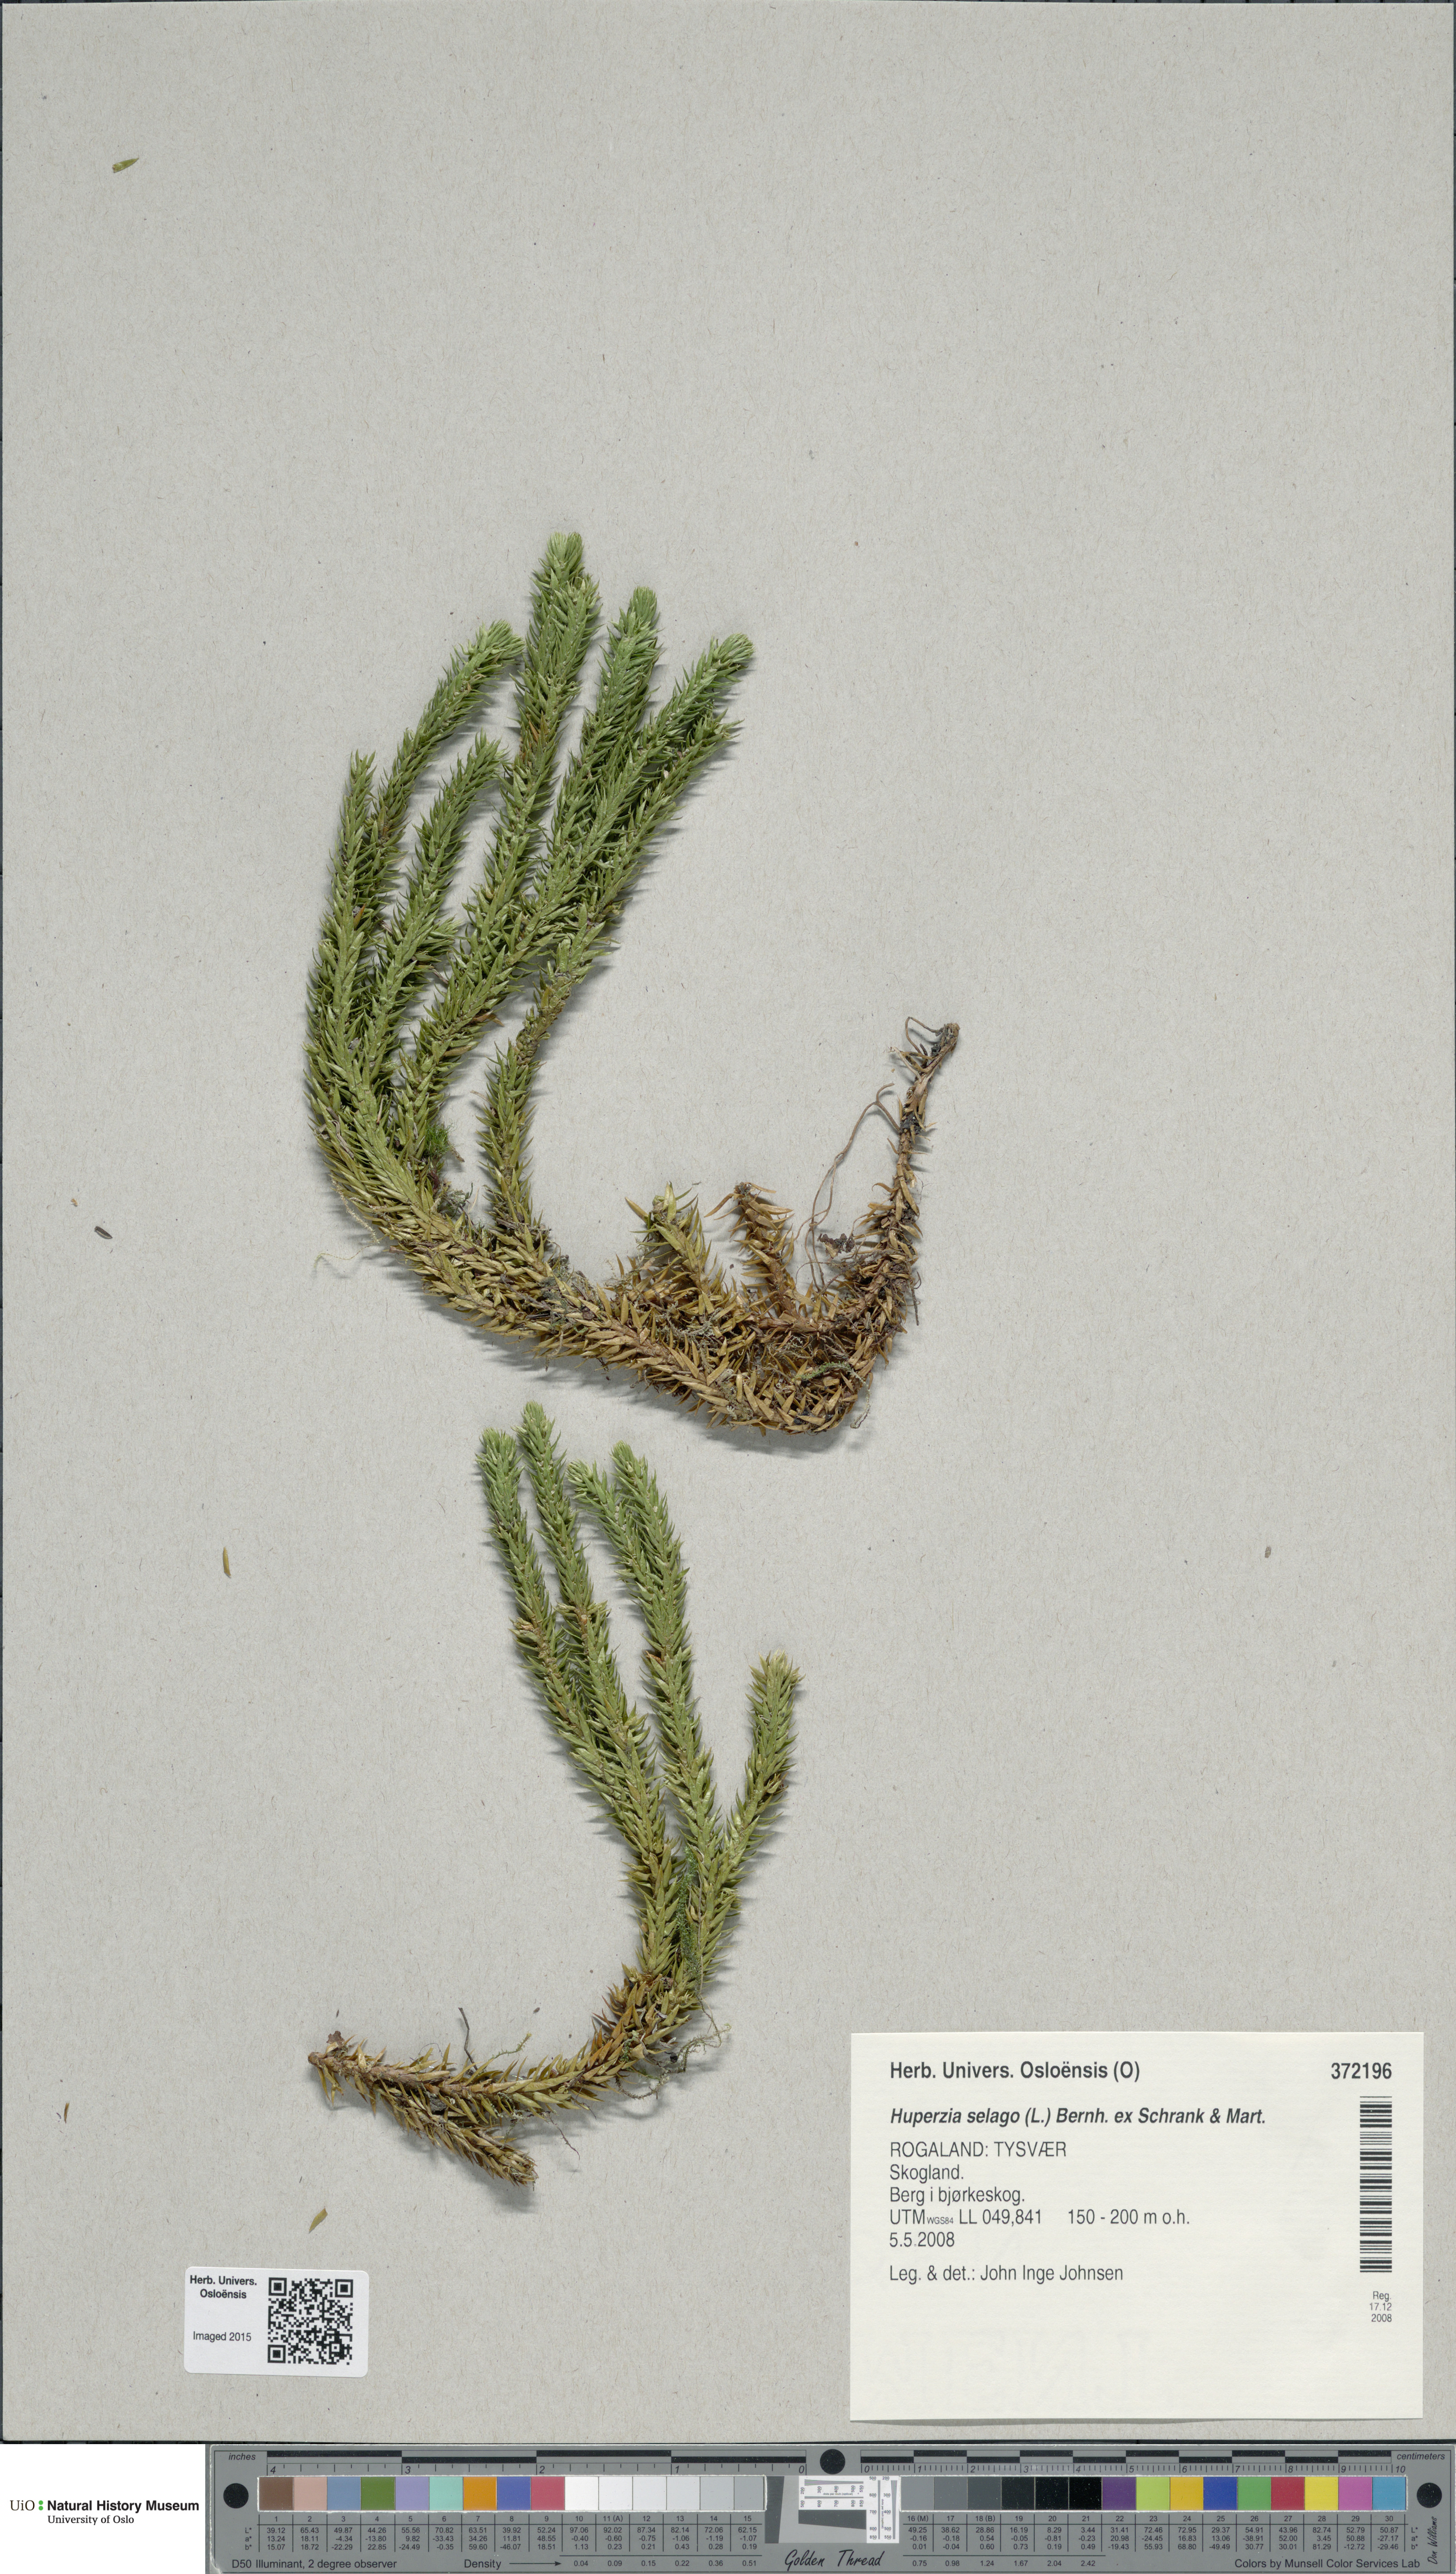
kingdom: Plantae
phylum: Tracheophyta
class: Lycopodiopsida
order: Lycopodiales
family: Lycopodiaceae
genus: Huperzia
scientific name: Huperzia selago
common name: Northern firmoss
